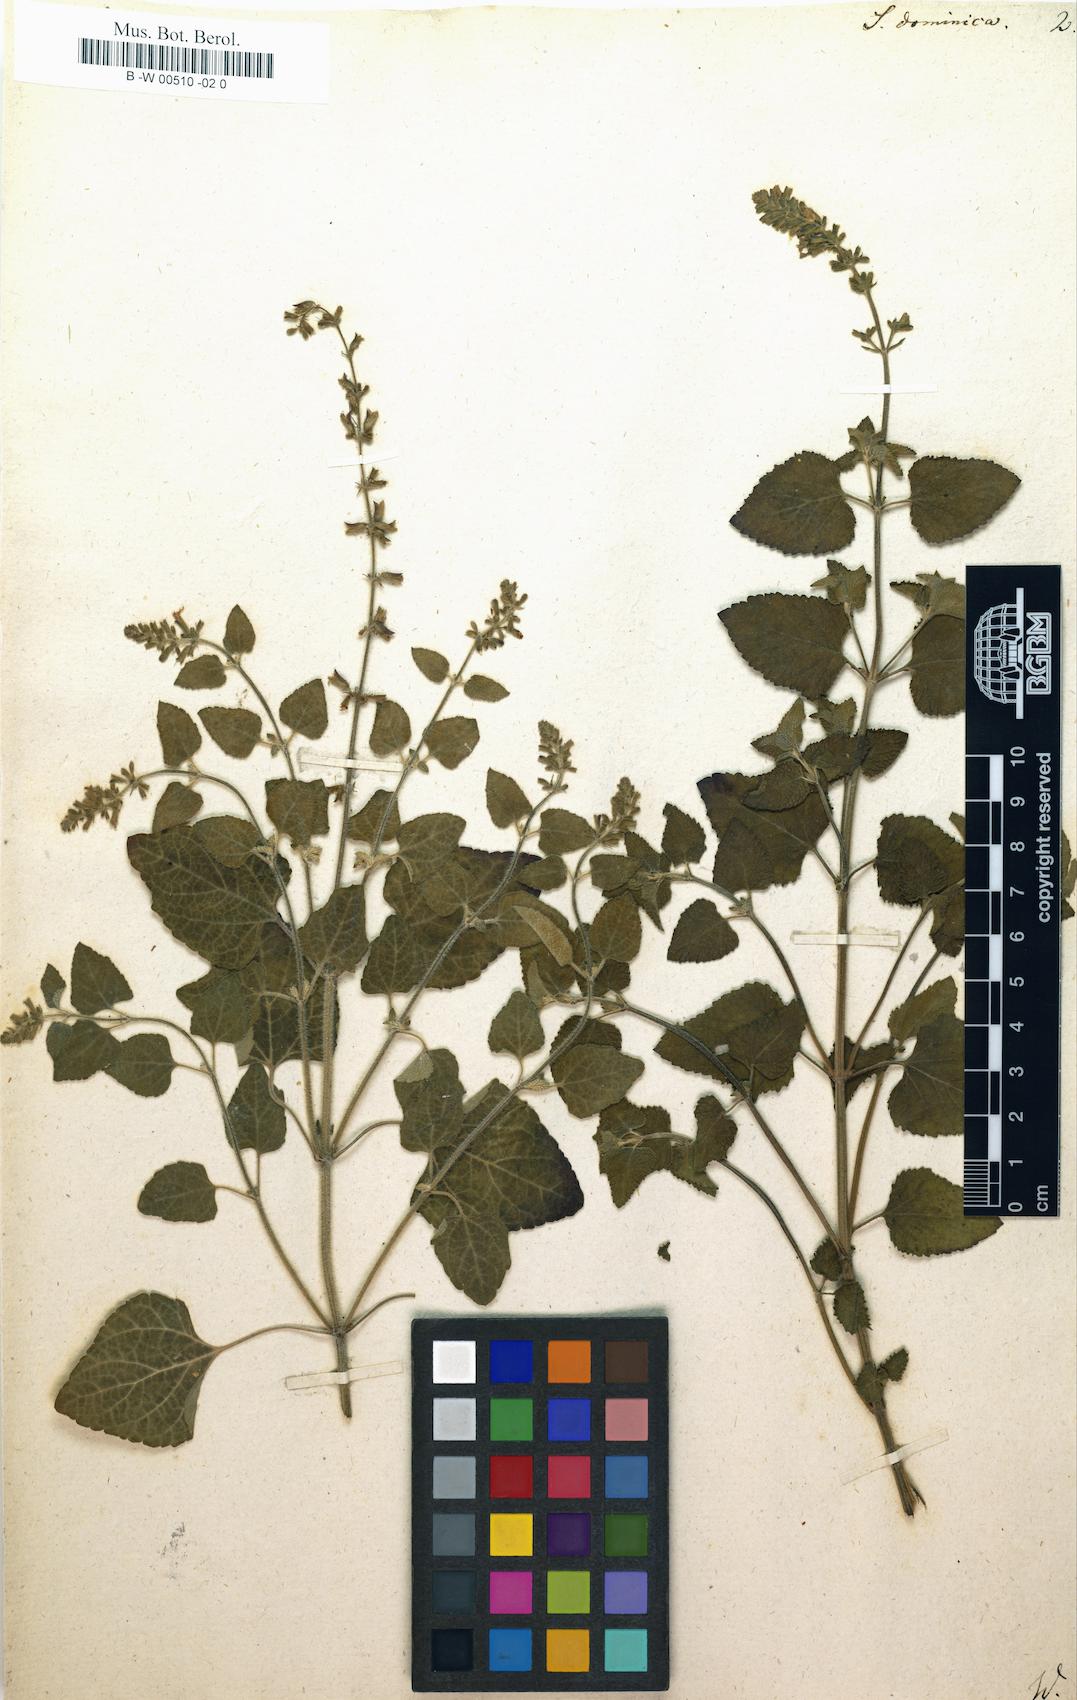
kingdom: Plantae
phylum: Tracheophyta
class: Magnoliopsida
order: Lamiales
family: Lamiaceae
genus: Salvia
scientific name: Salvia dominica
